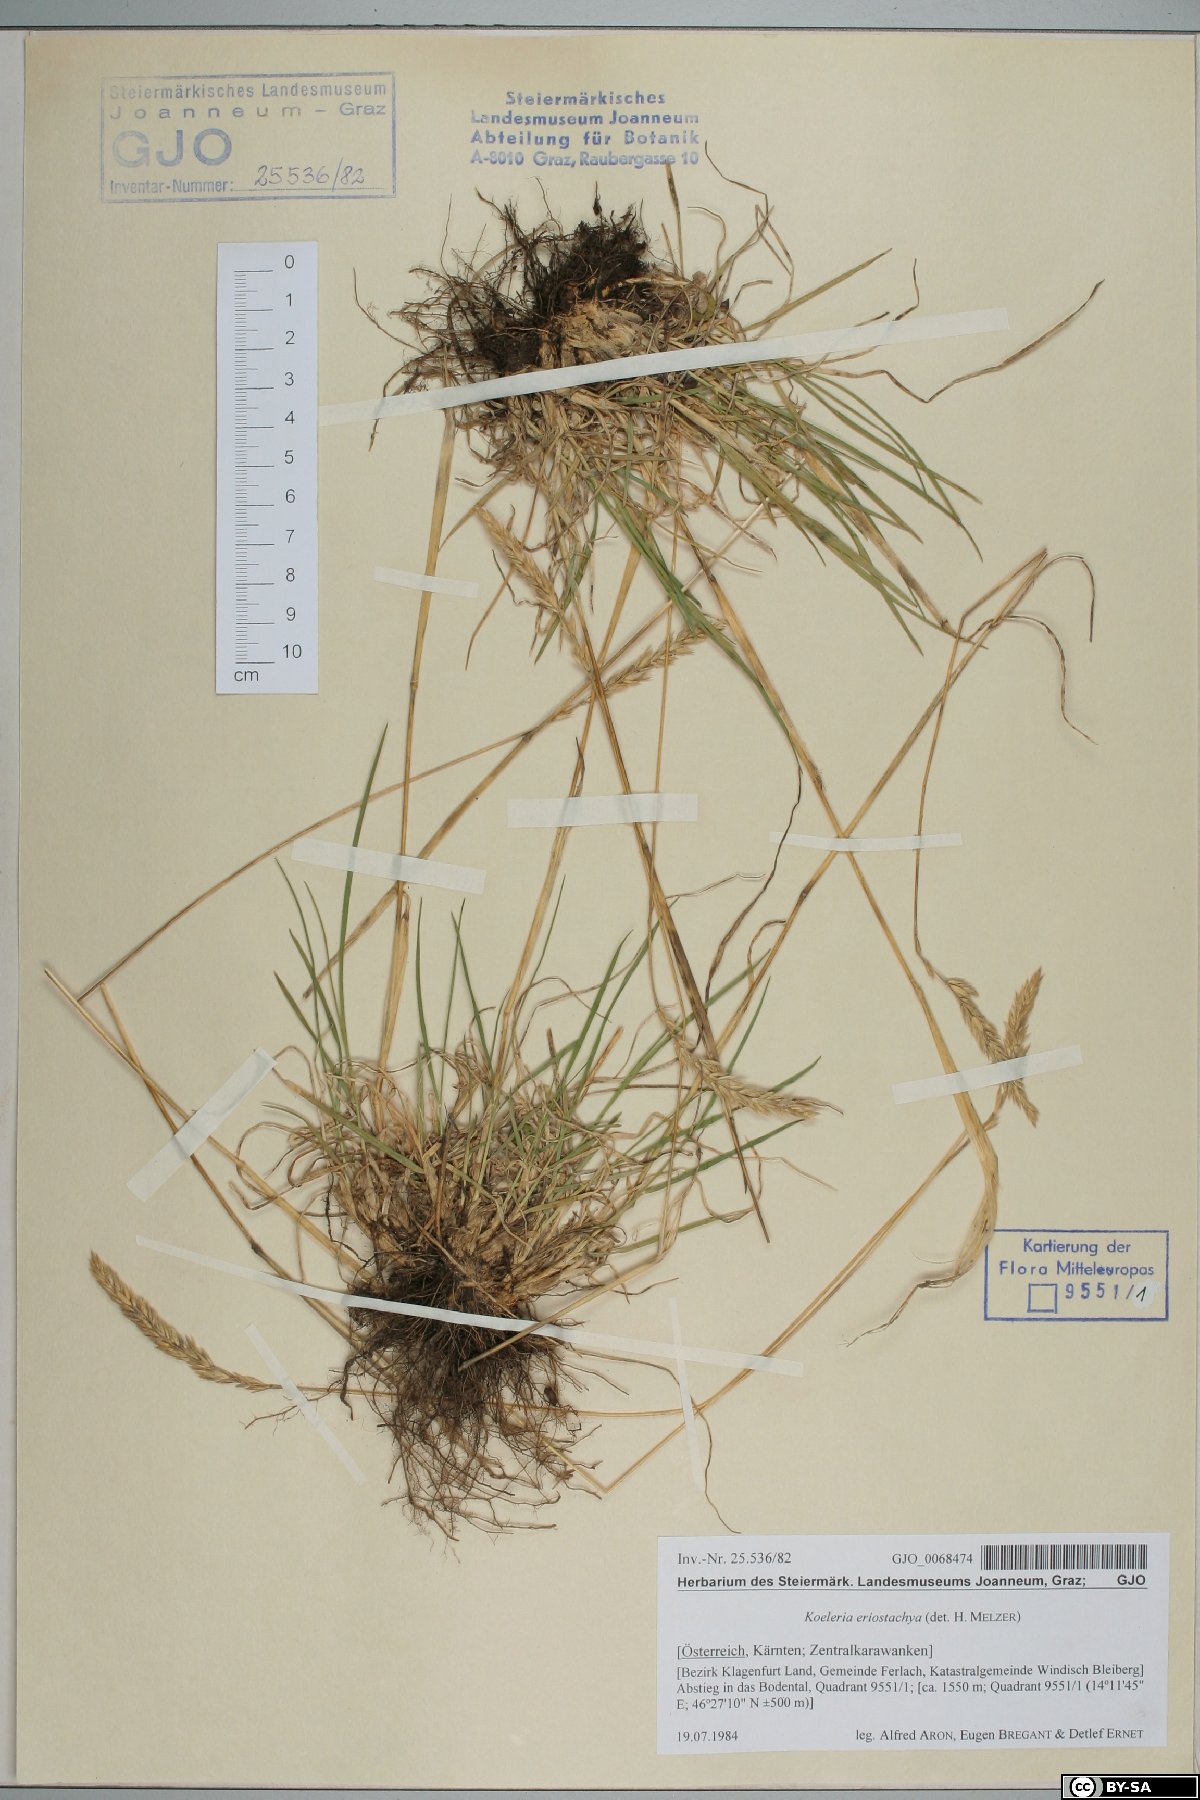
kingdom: Plantae
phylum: Tracheophyta
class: Liliopsida
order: Poales
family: Poaceae
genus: Koeleria
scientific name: Koeleria eriostachya
